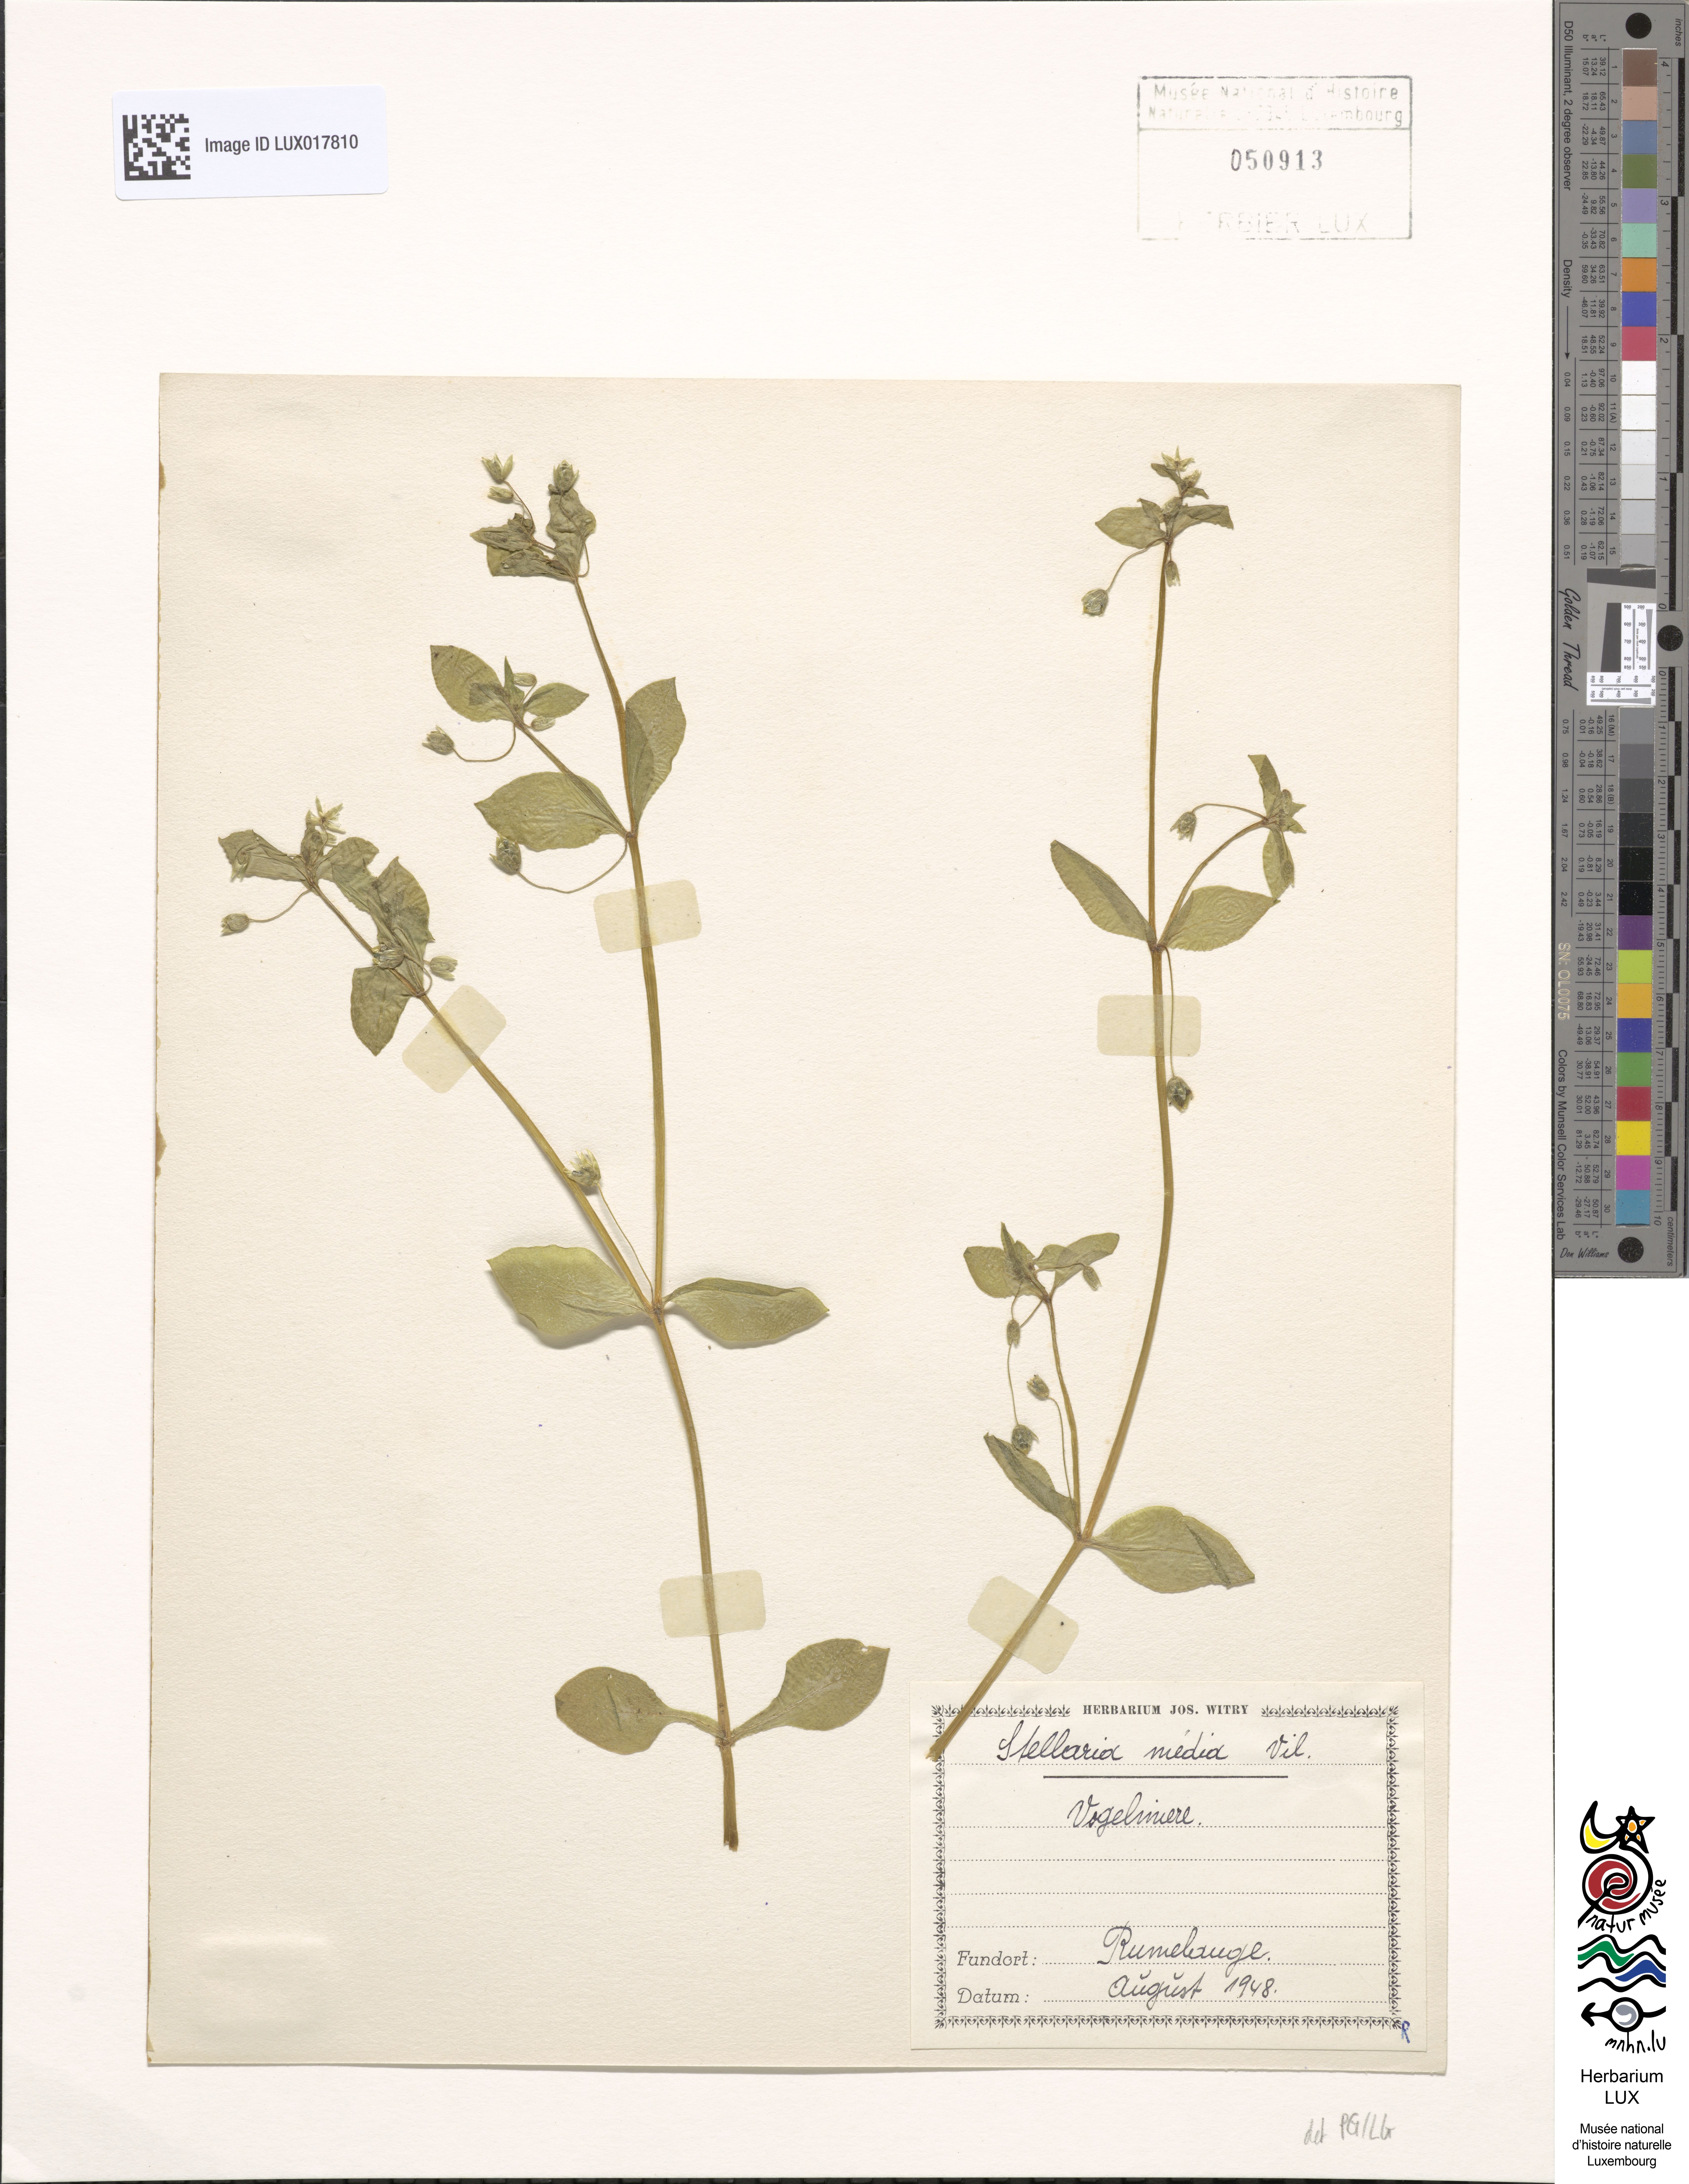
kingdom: Plantae
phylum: Tracheophyta
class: Magnoliopsida
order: Caryophyllales
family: Caryophyllaceae
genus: Stellaria
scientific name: Stellaria media
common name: Common chickweed
